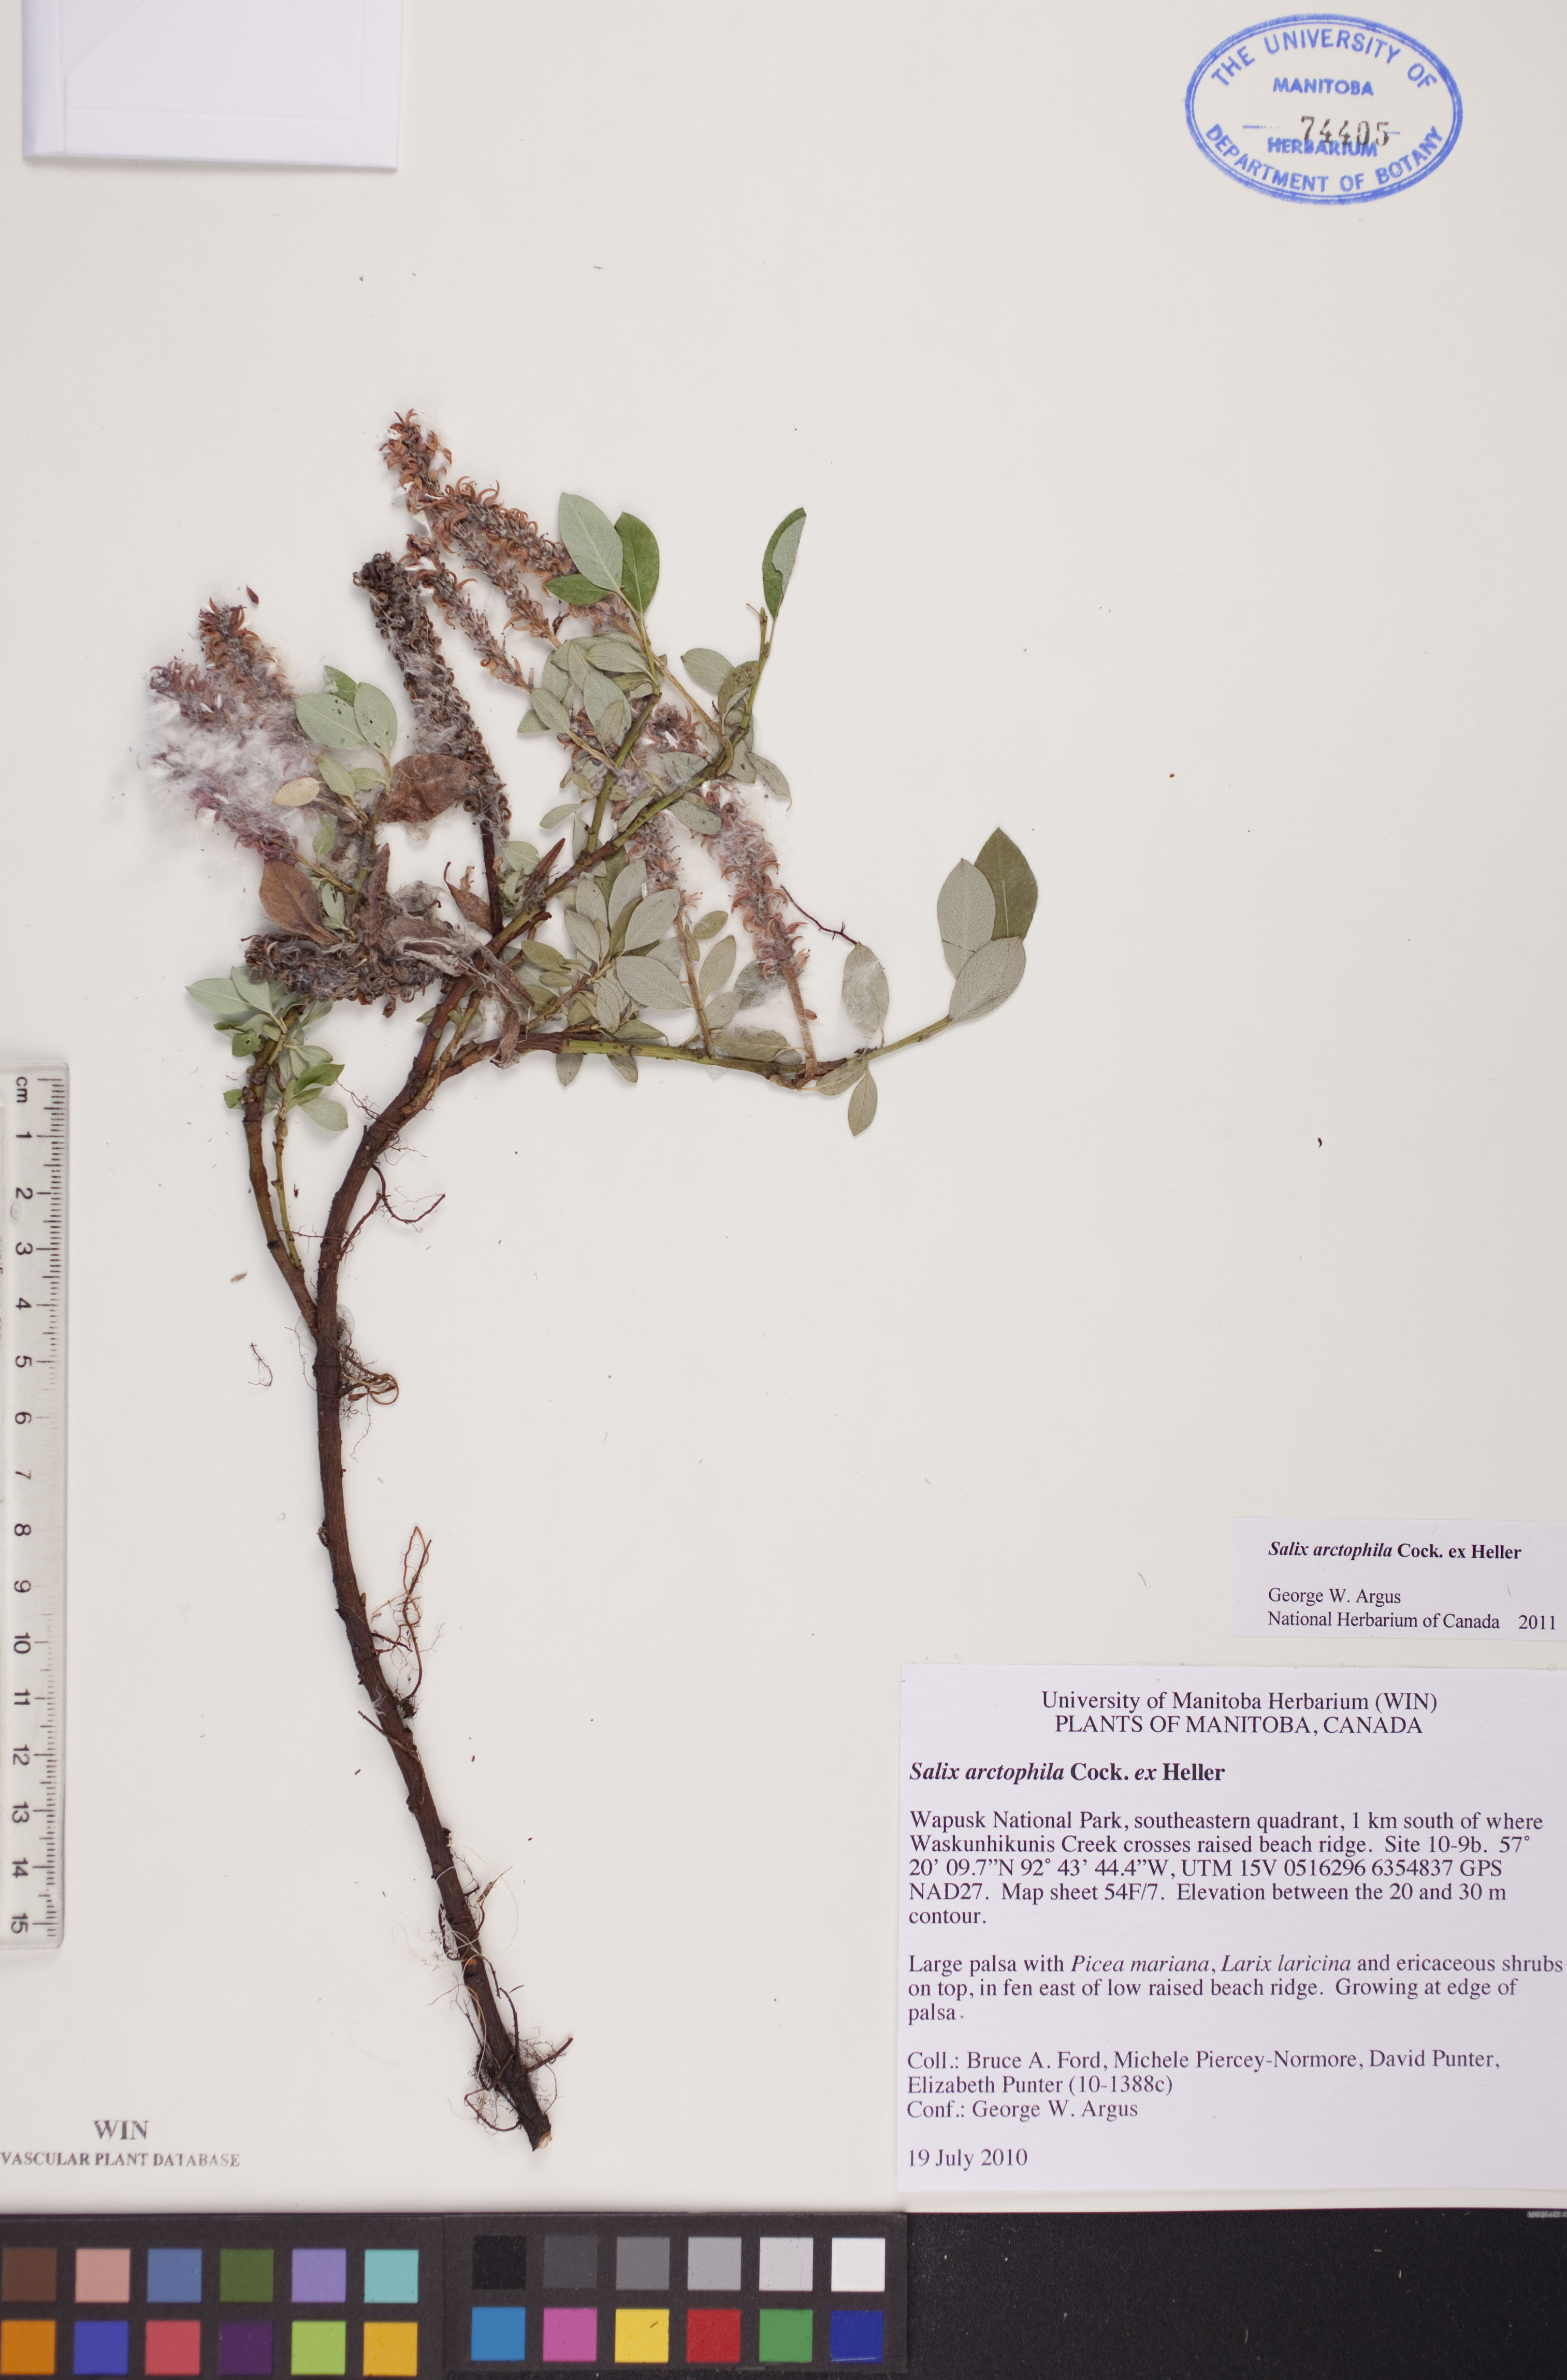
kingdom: Plantae
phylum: Tracheophyta
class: Magnoliopsida
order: Malpighiales
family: Salicaceae
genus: Salix
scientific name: Salix arctophila
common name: Greenland willow
